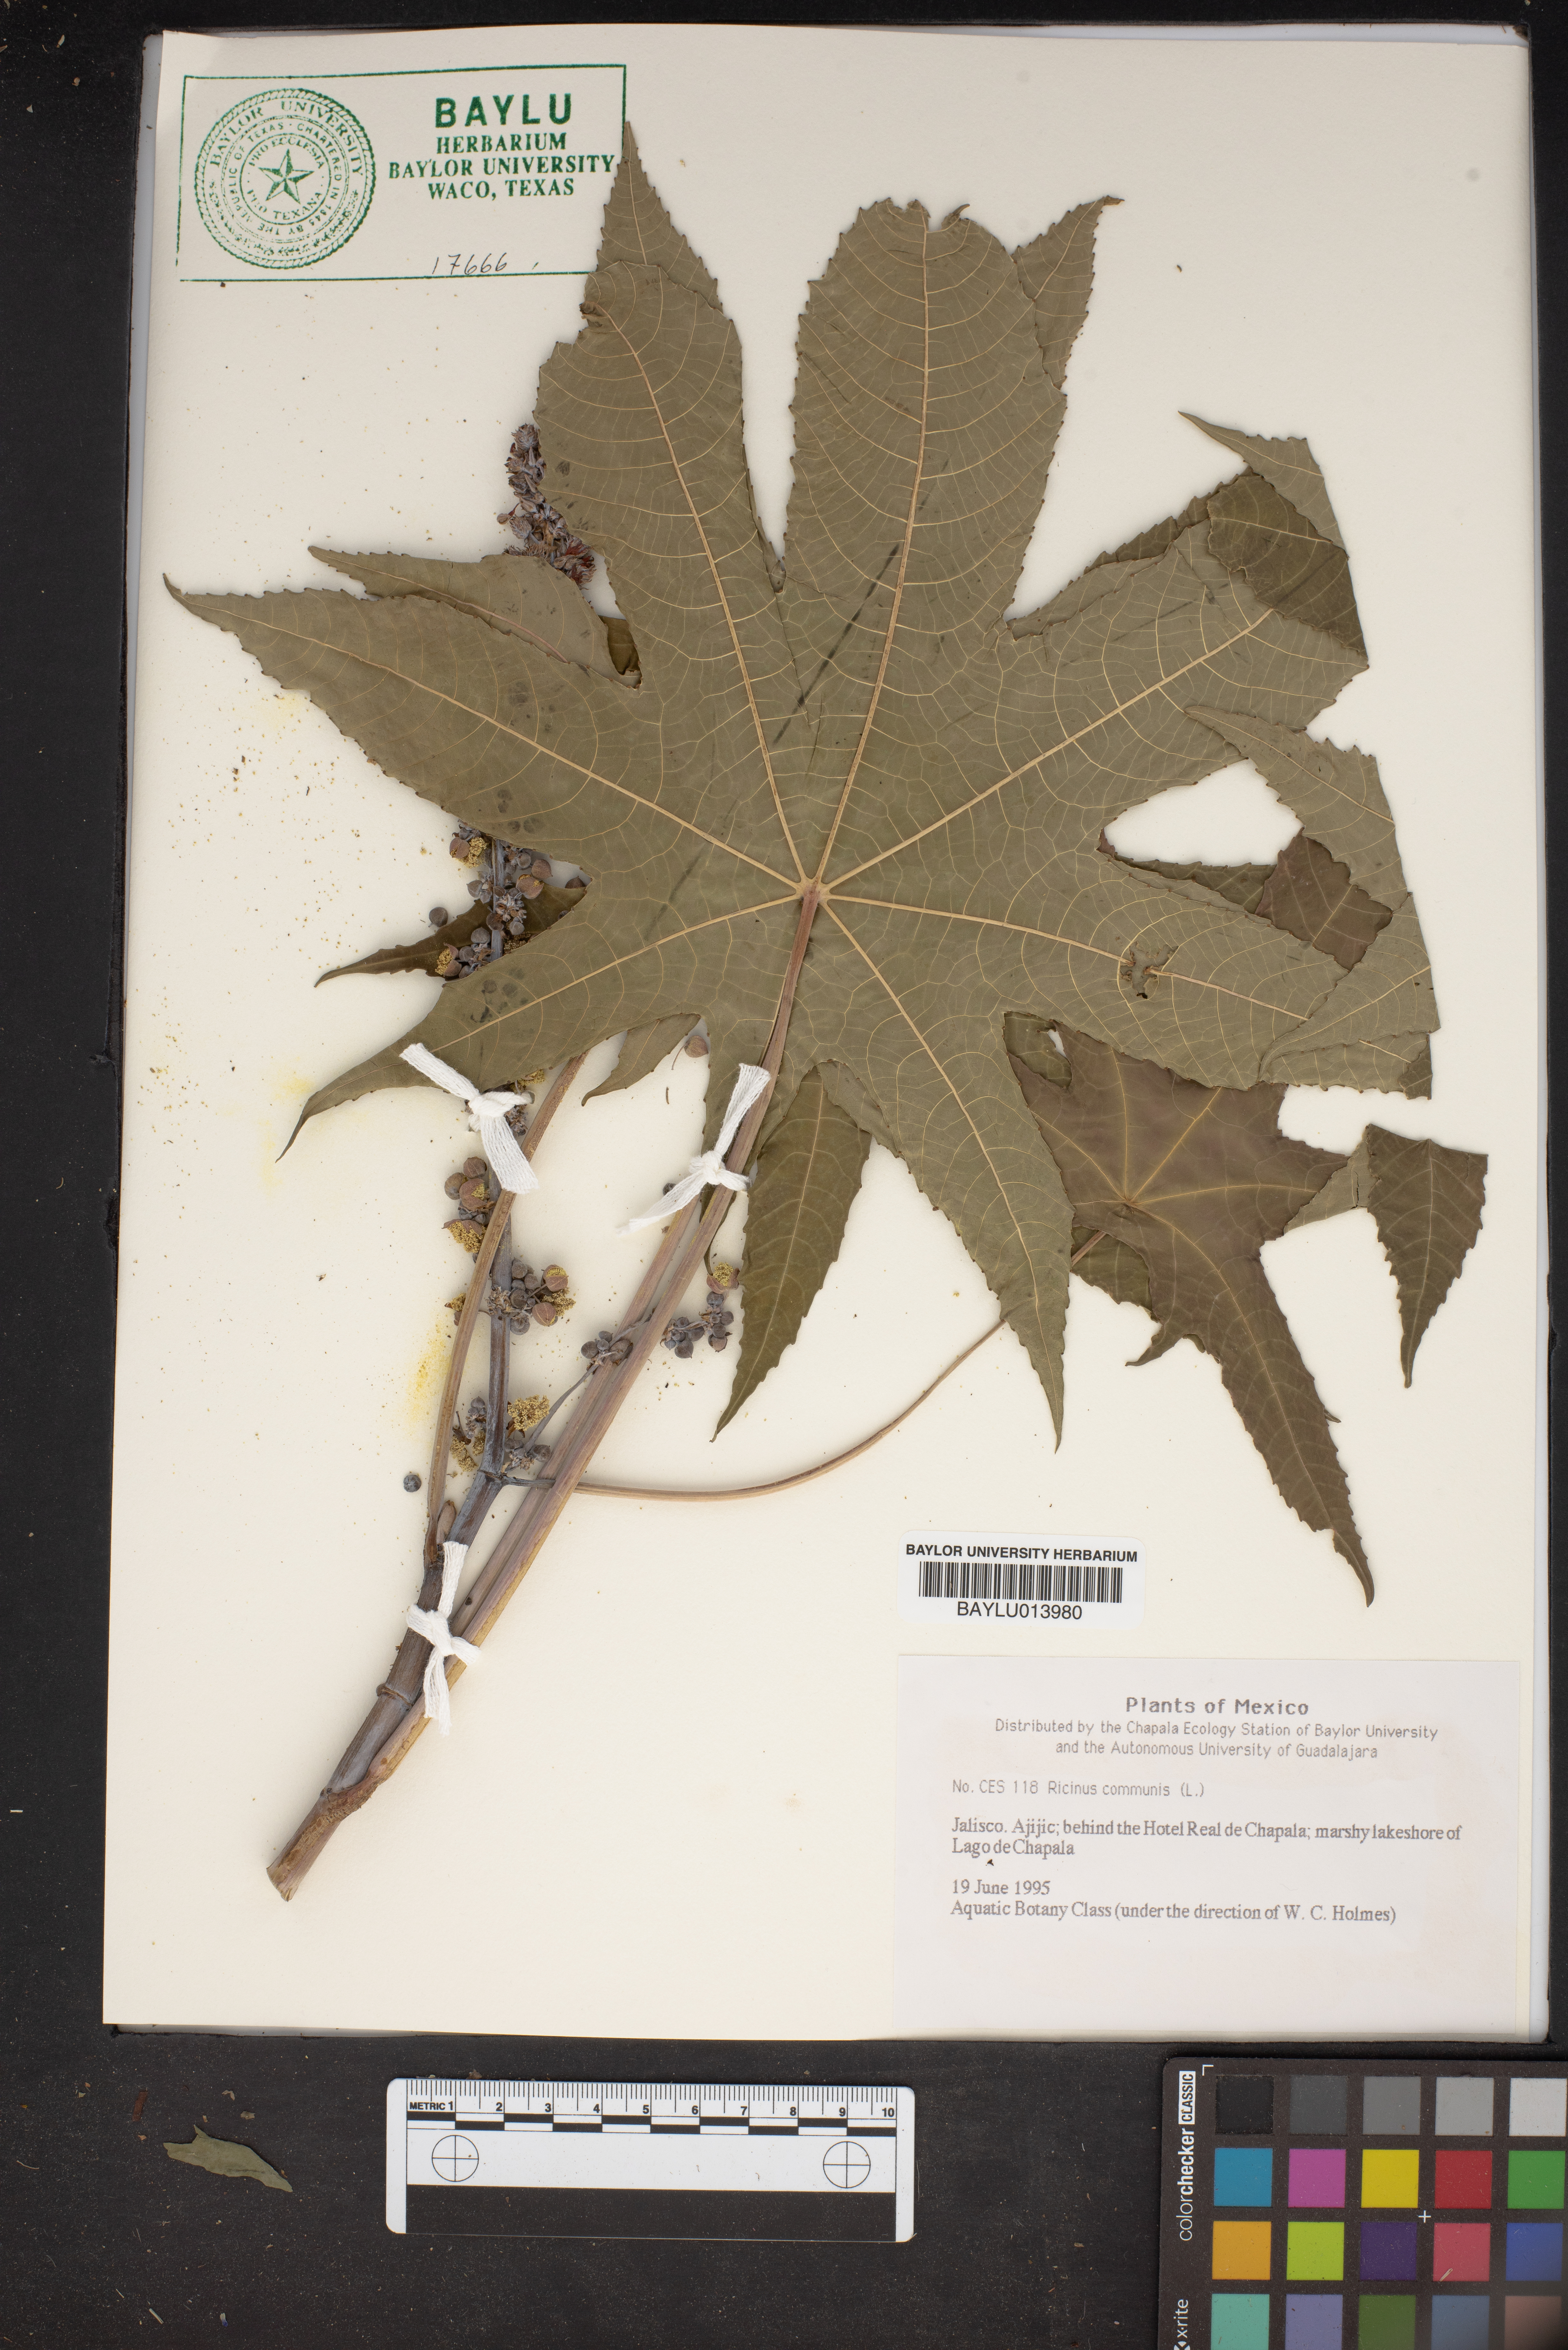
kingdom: Plantae
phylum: Tracheophyta
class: Magnoliopsida
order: Malpighiales
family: Euphorbiaceae
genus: Ricinus
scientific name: Ricinus communis
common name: Castor-oil-plant
